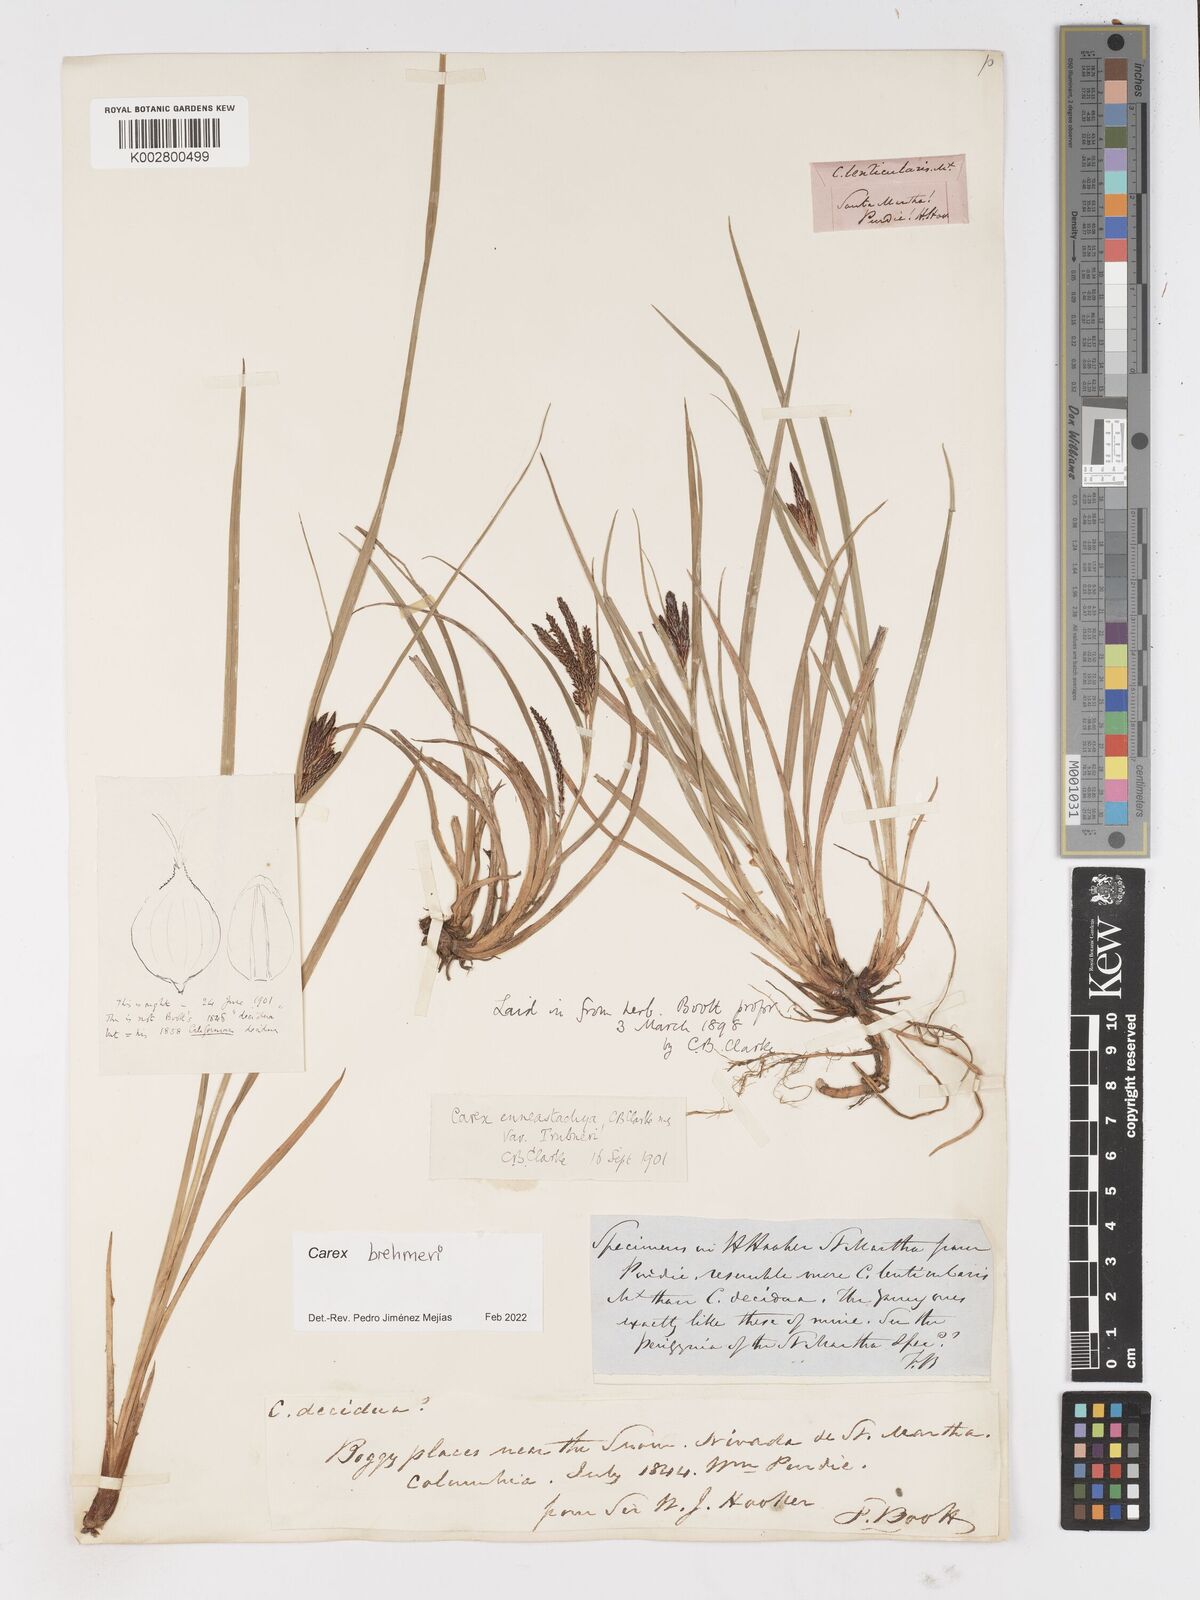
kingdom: Plantae
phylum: Tracheophyta
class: Liliopsida
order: Poales
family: Cyperaceae
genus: Carex
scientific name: Carex enneastachya
